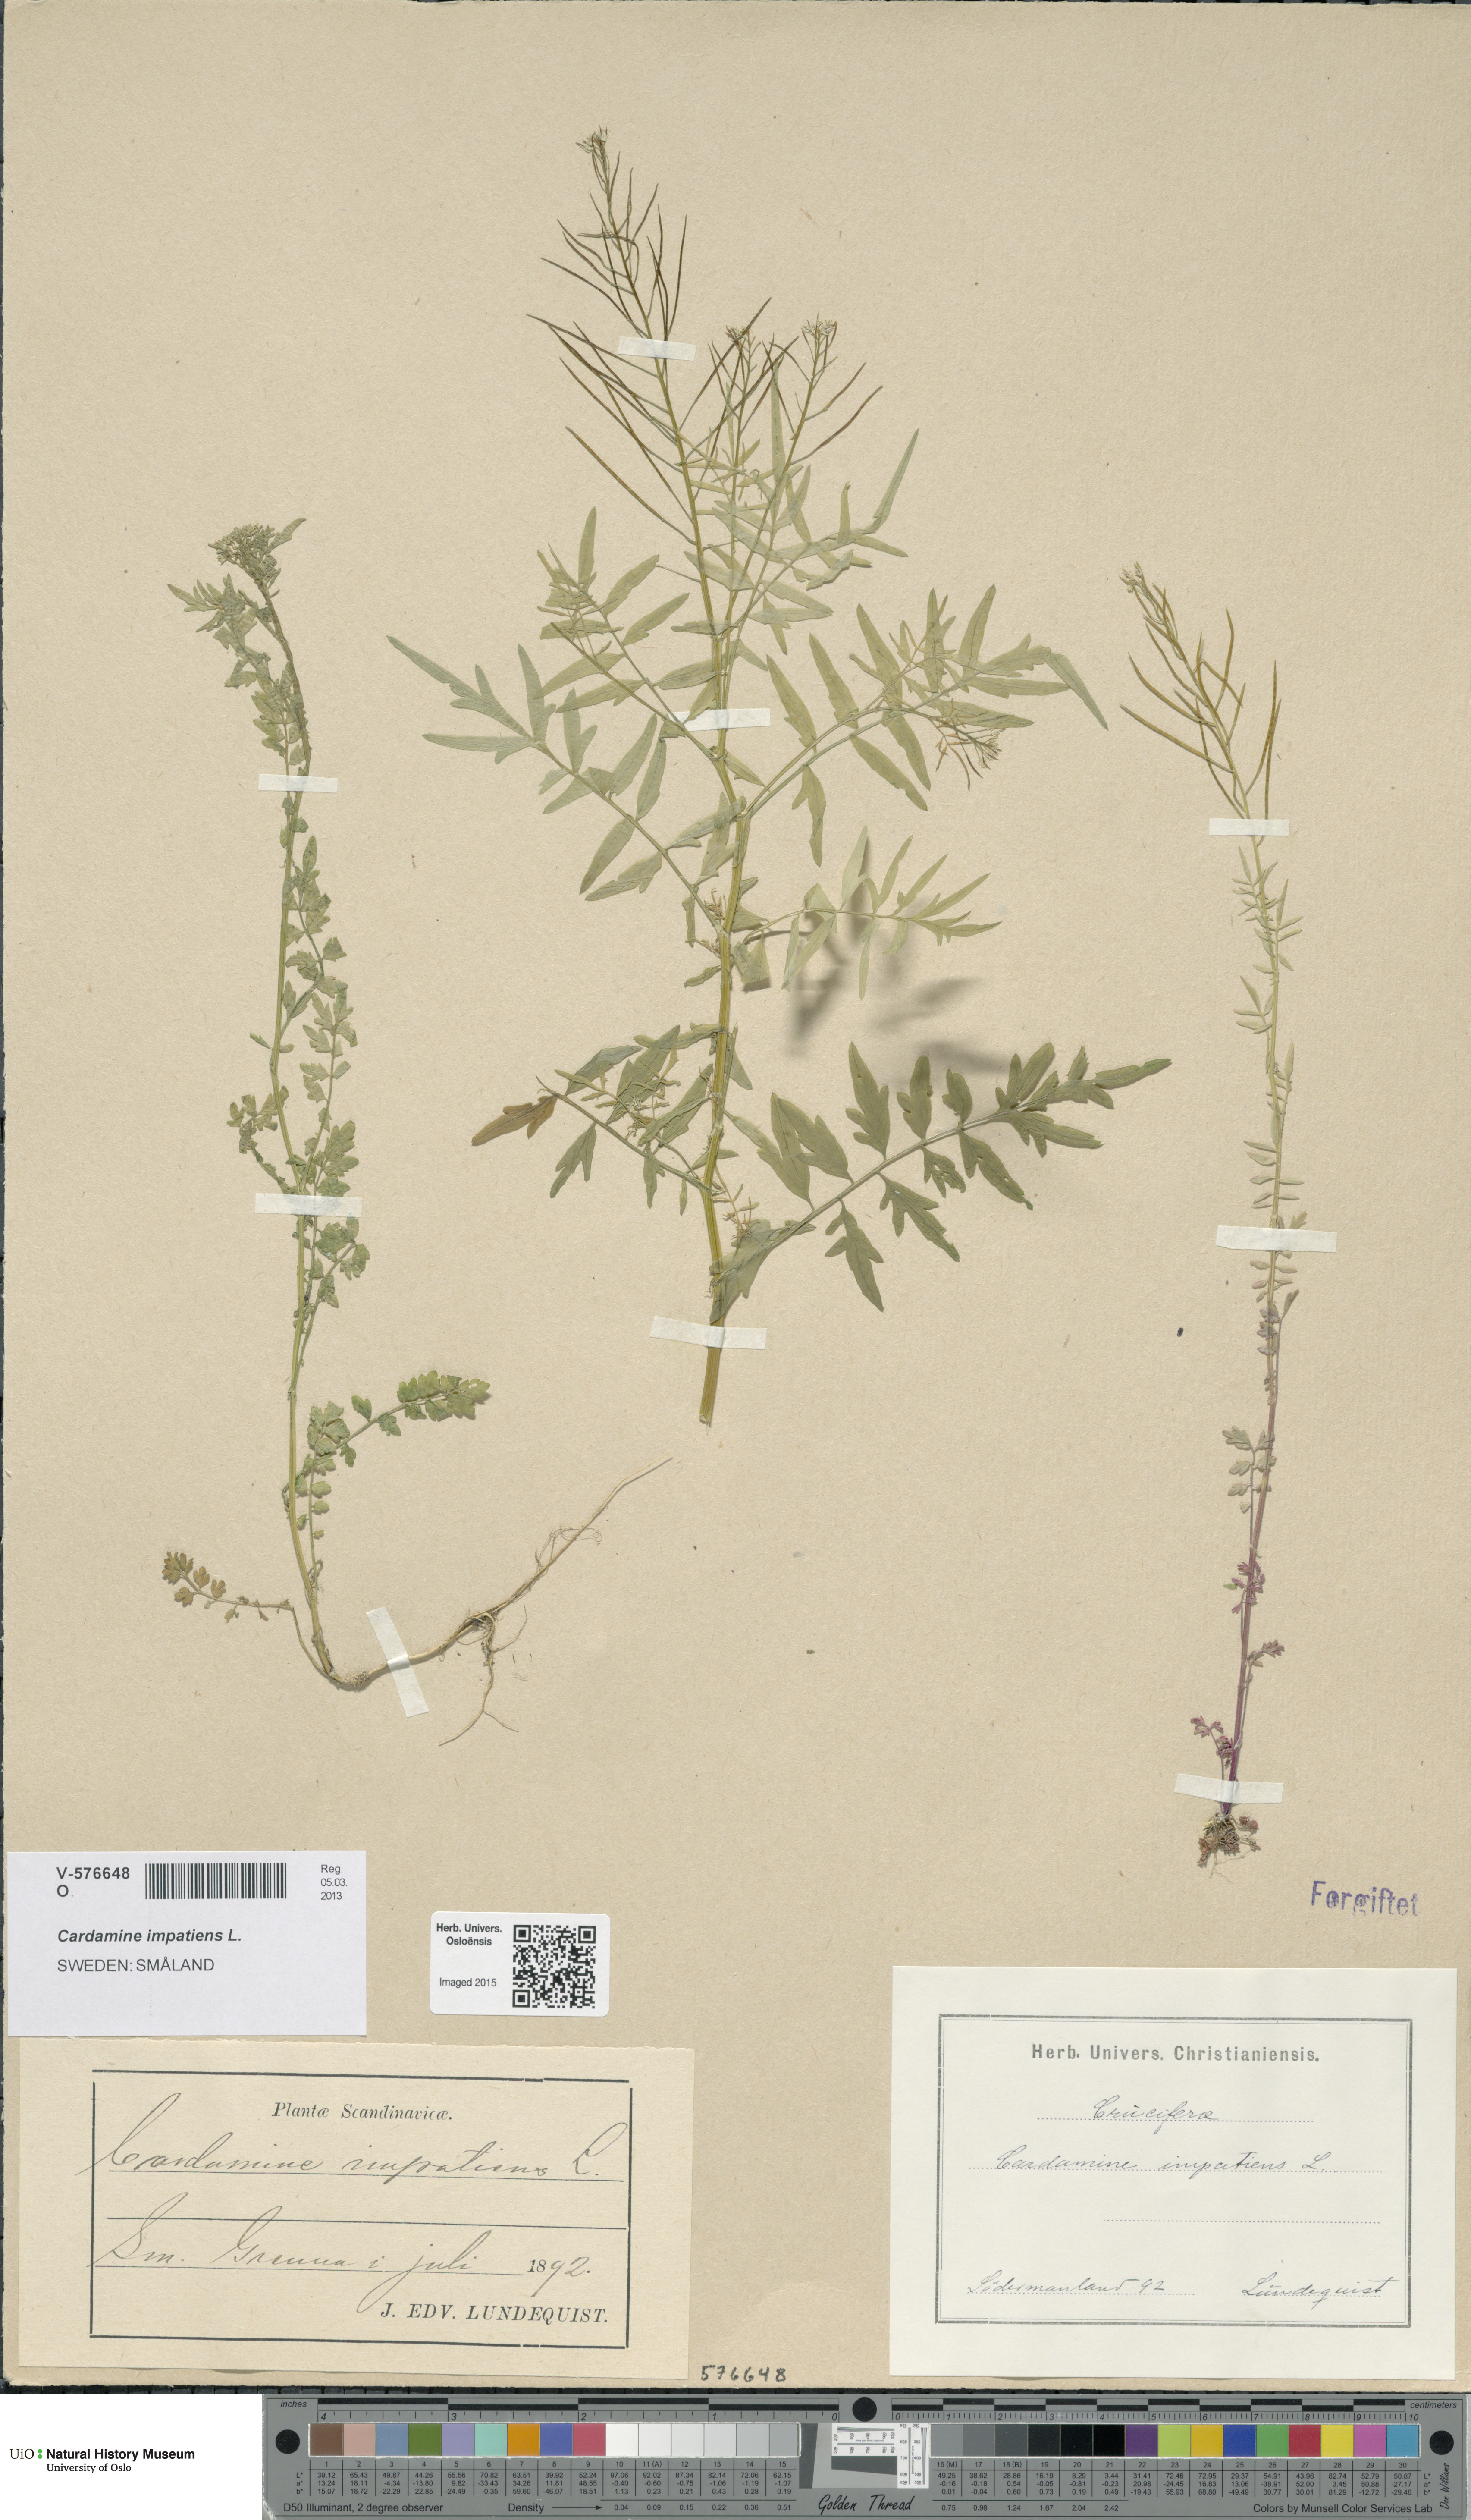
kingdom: Plantae
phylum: Tracheophyta
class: Magnoliopsida
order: Brassicales
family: Brassicaceae
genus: Cardamine
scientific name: Cardamine impatiens
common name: Narrow-leaved bitter-cress
